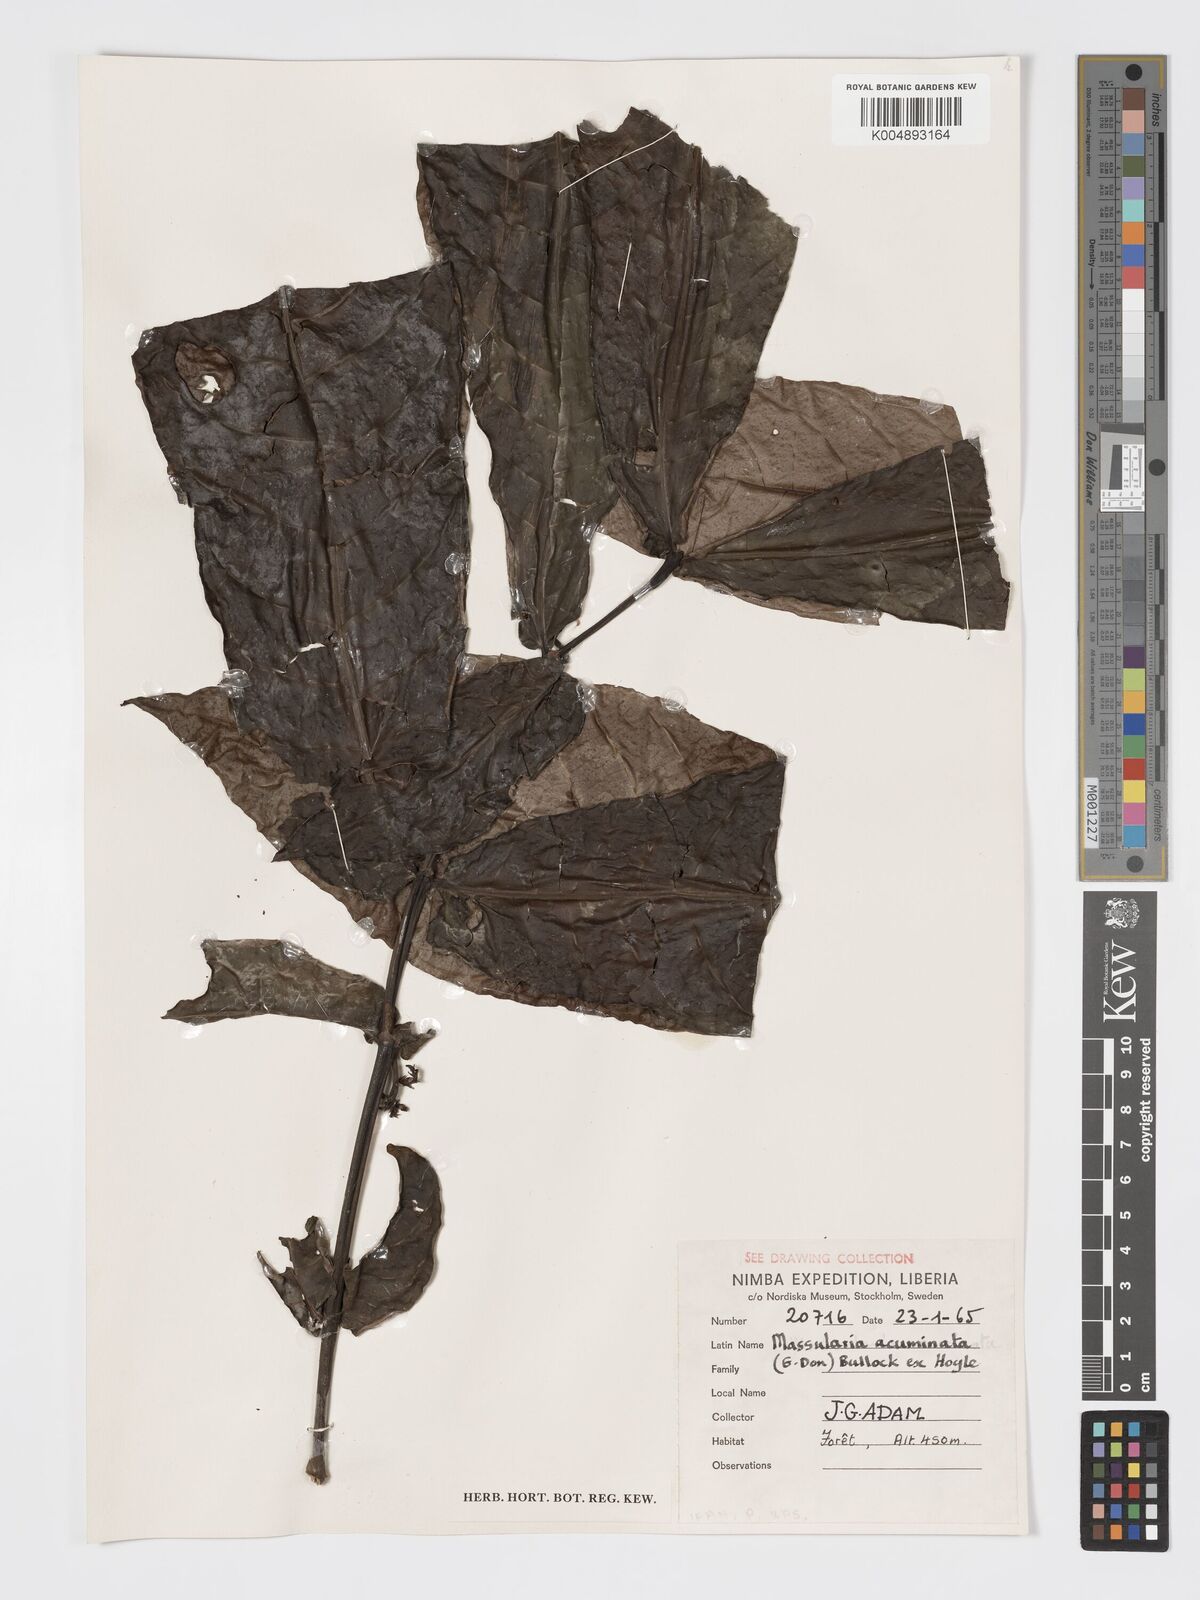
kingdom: Plantae
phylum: Tracheophyta
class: Magnoliopsida
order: Gentianales
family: Rubiaceae
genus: Massularia
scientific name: Massularia acuminata
